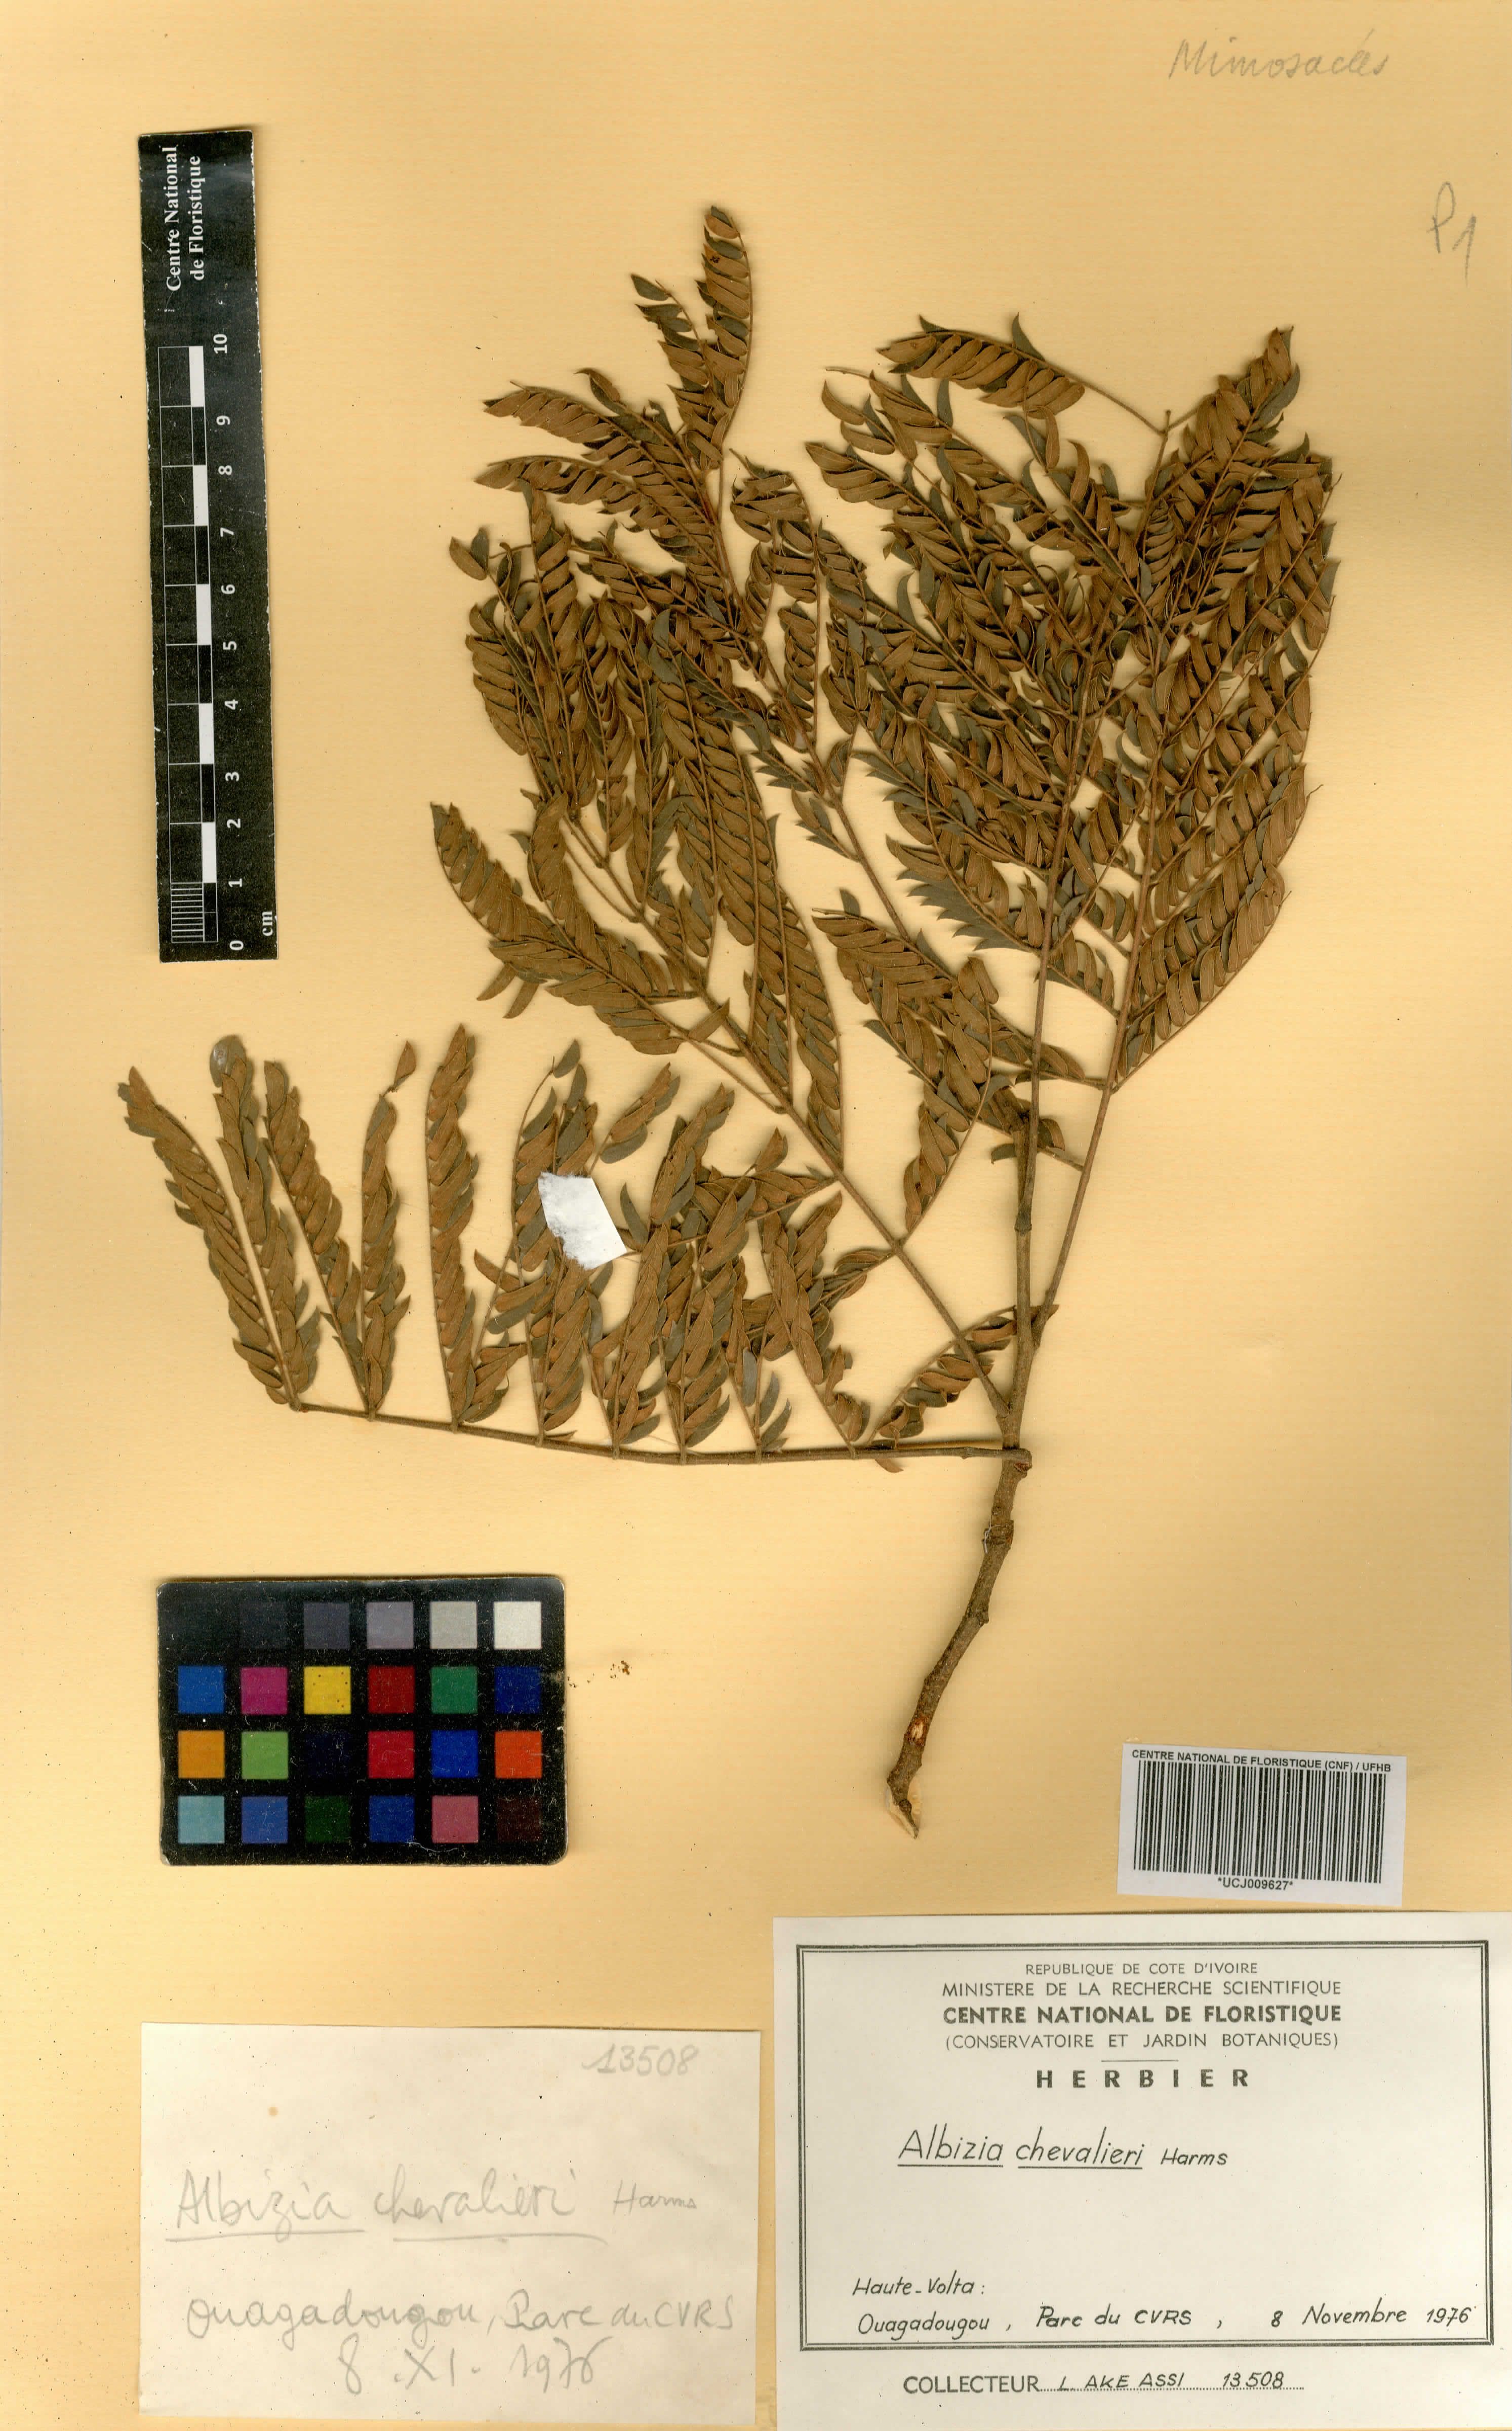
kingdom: Plantae
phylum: Tracheophyta
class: Magnoliopsida
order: Fabales
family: Fabaceae
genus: Albizia
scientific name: Albizia chevalieri
